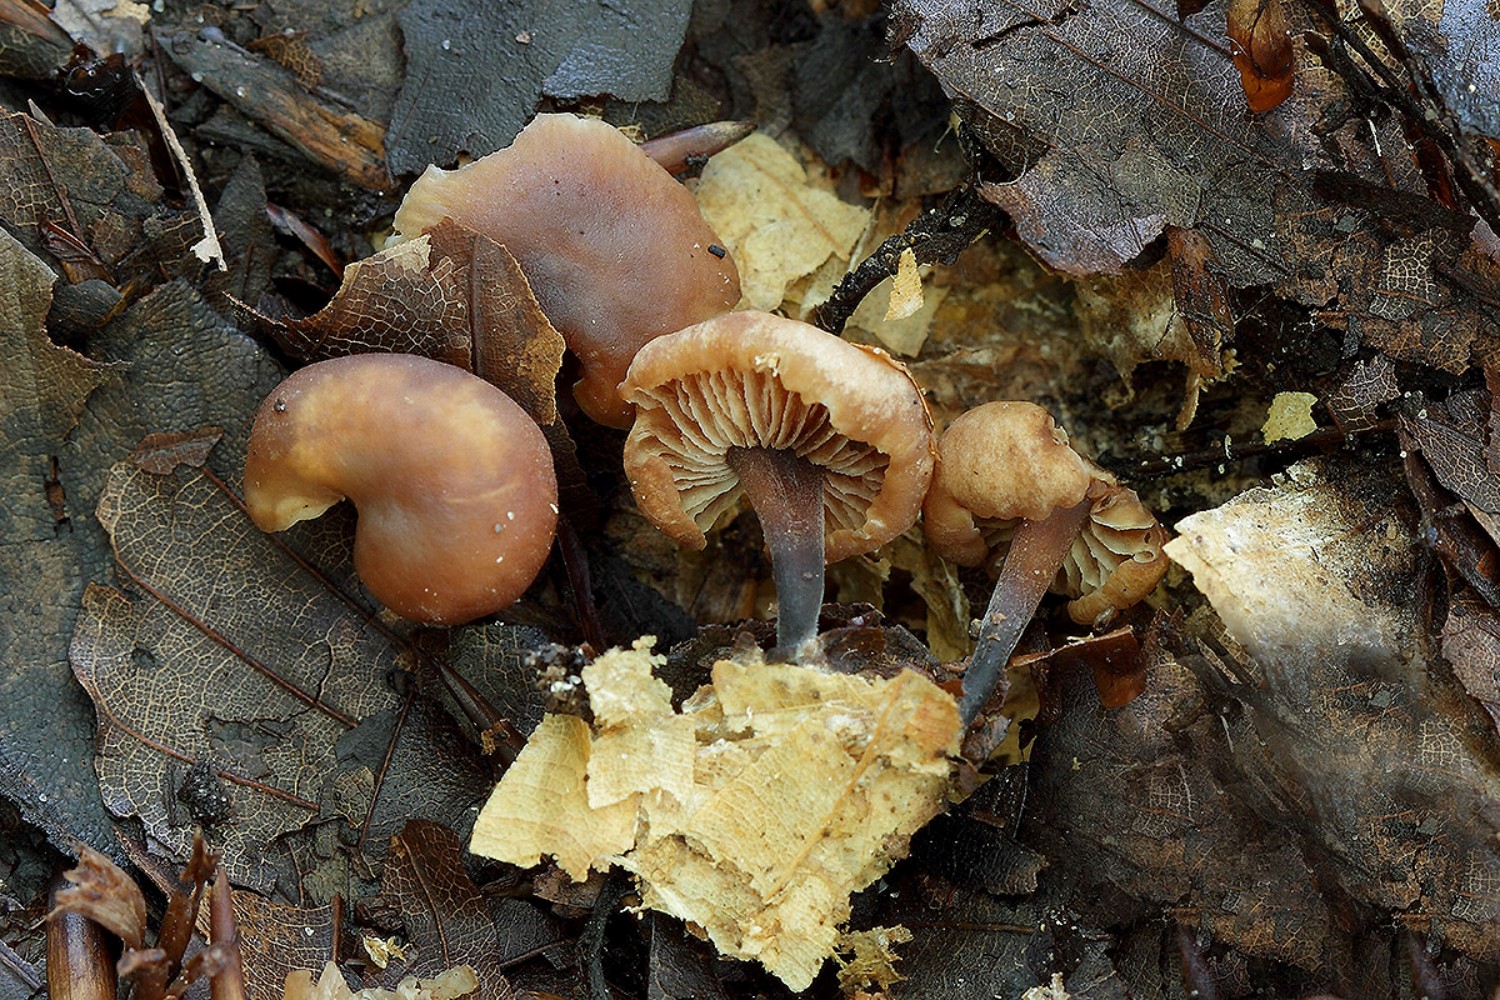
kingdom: Fungi
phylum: Basidiomycota
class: Agaricomycetes
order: Agaricales
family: Omphalotaceae
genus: Gymnopus
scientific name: Gymnopus brassicolens
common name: kål-fladhat
